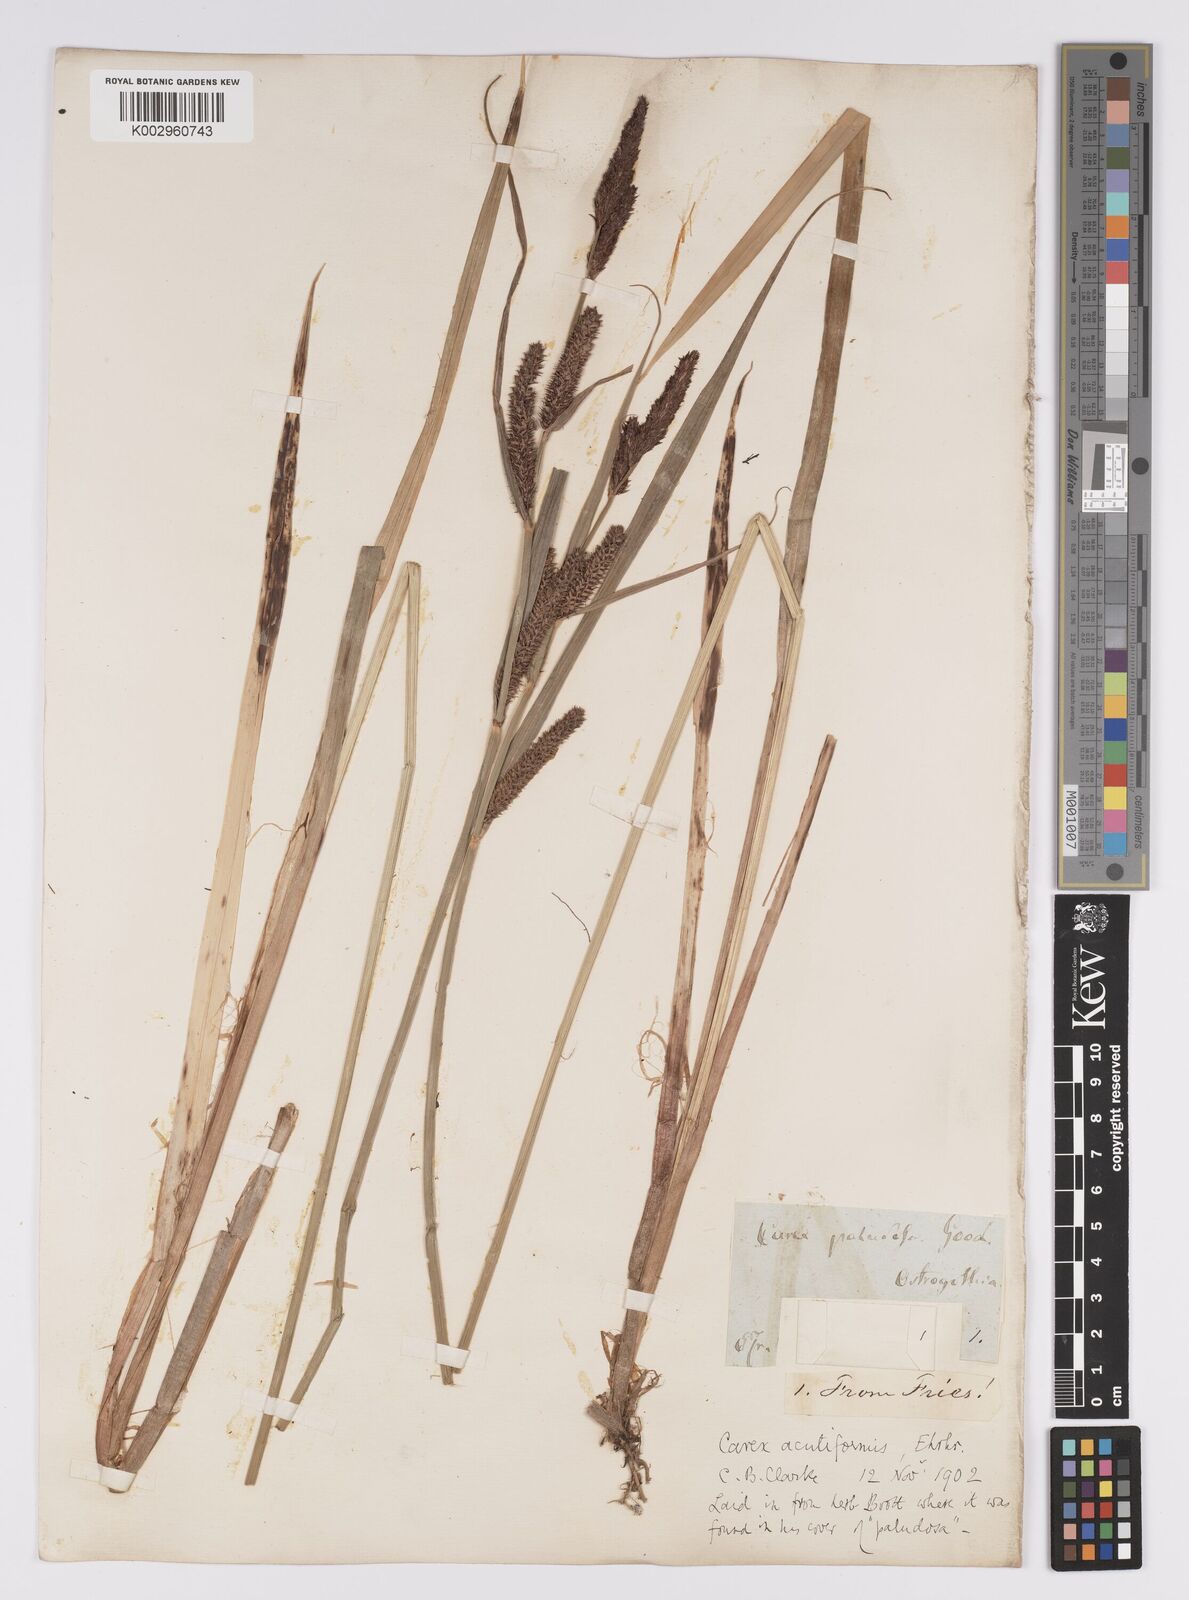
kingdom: Plantae
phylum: Tracheophyta
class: Liliopsida
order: Poales
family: Cyperaceae
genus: Carex
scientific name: Carex acutiformis
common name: Lesser pond-sedge
